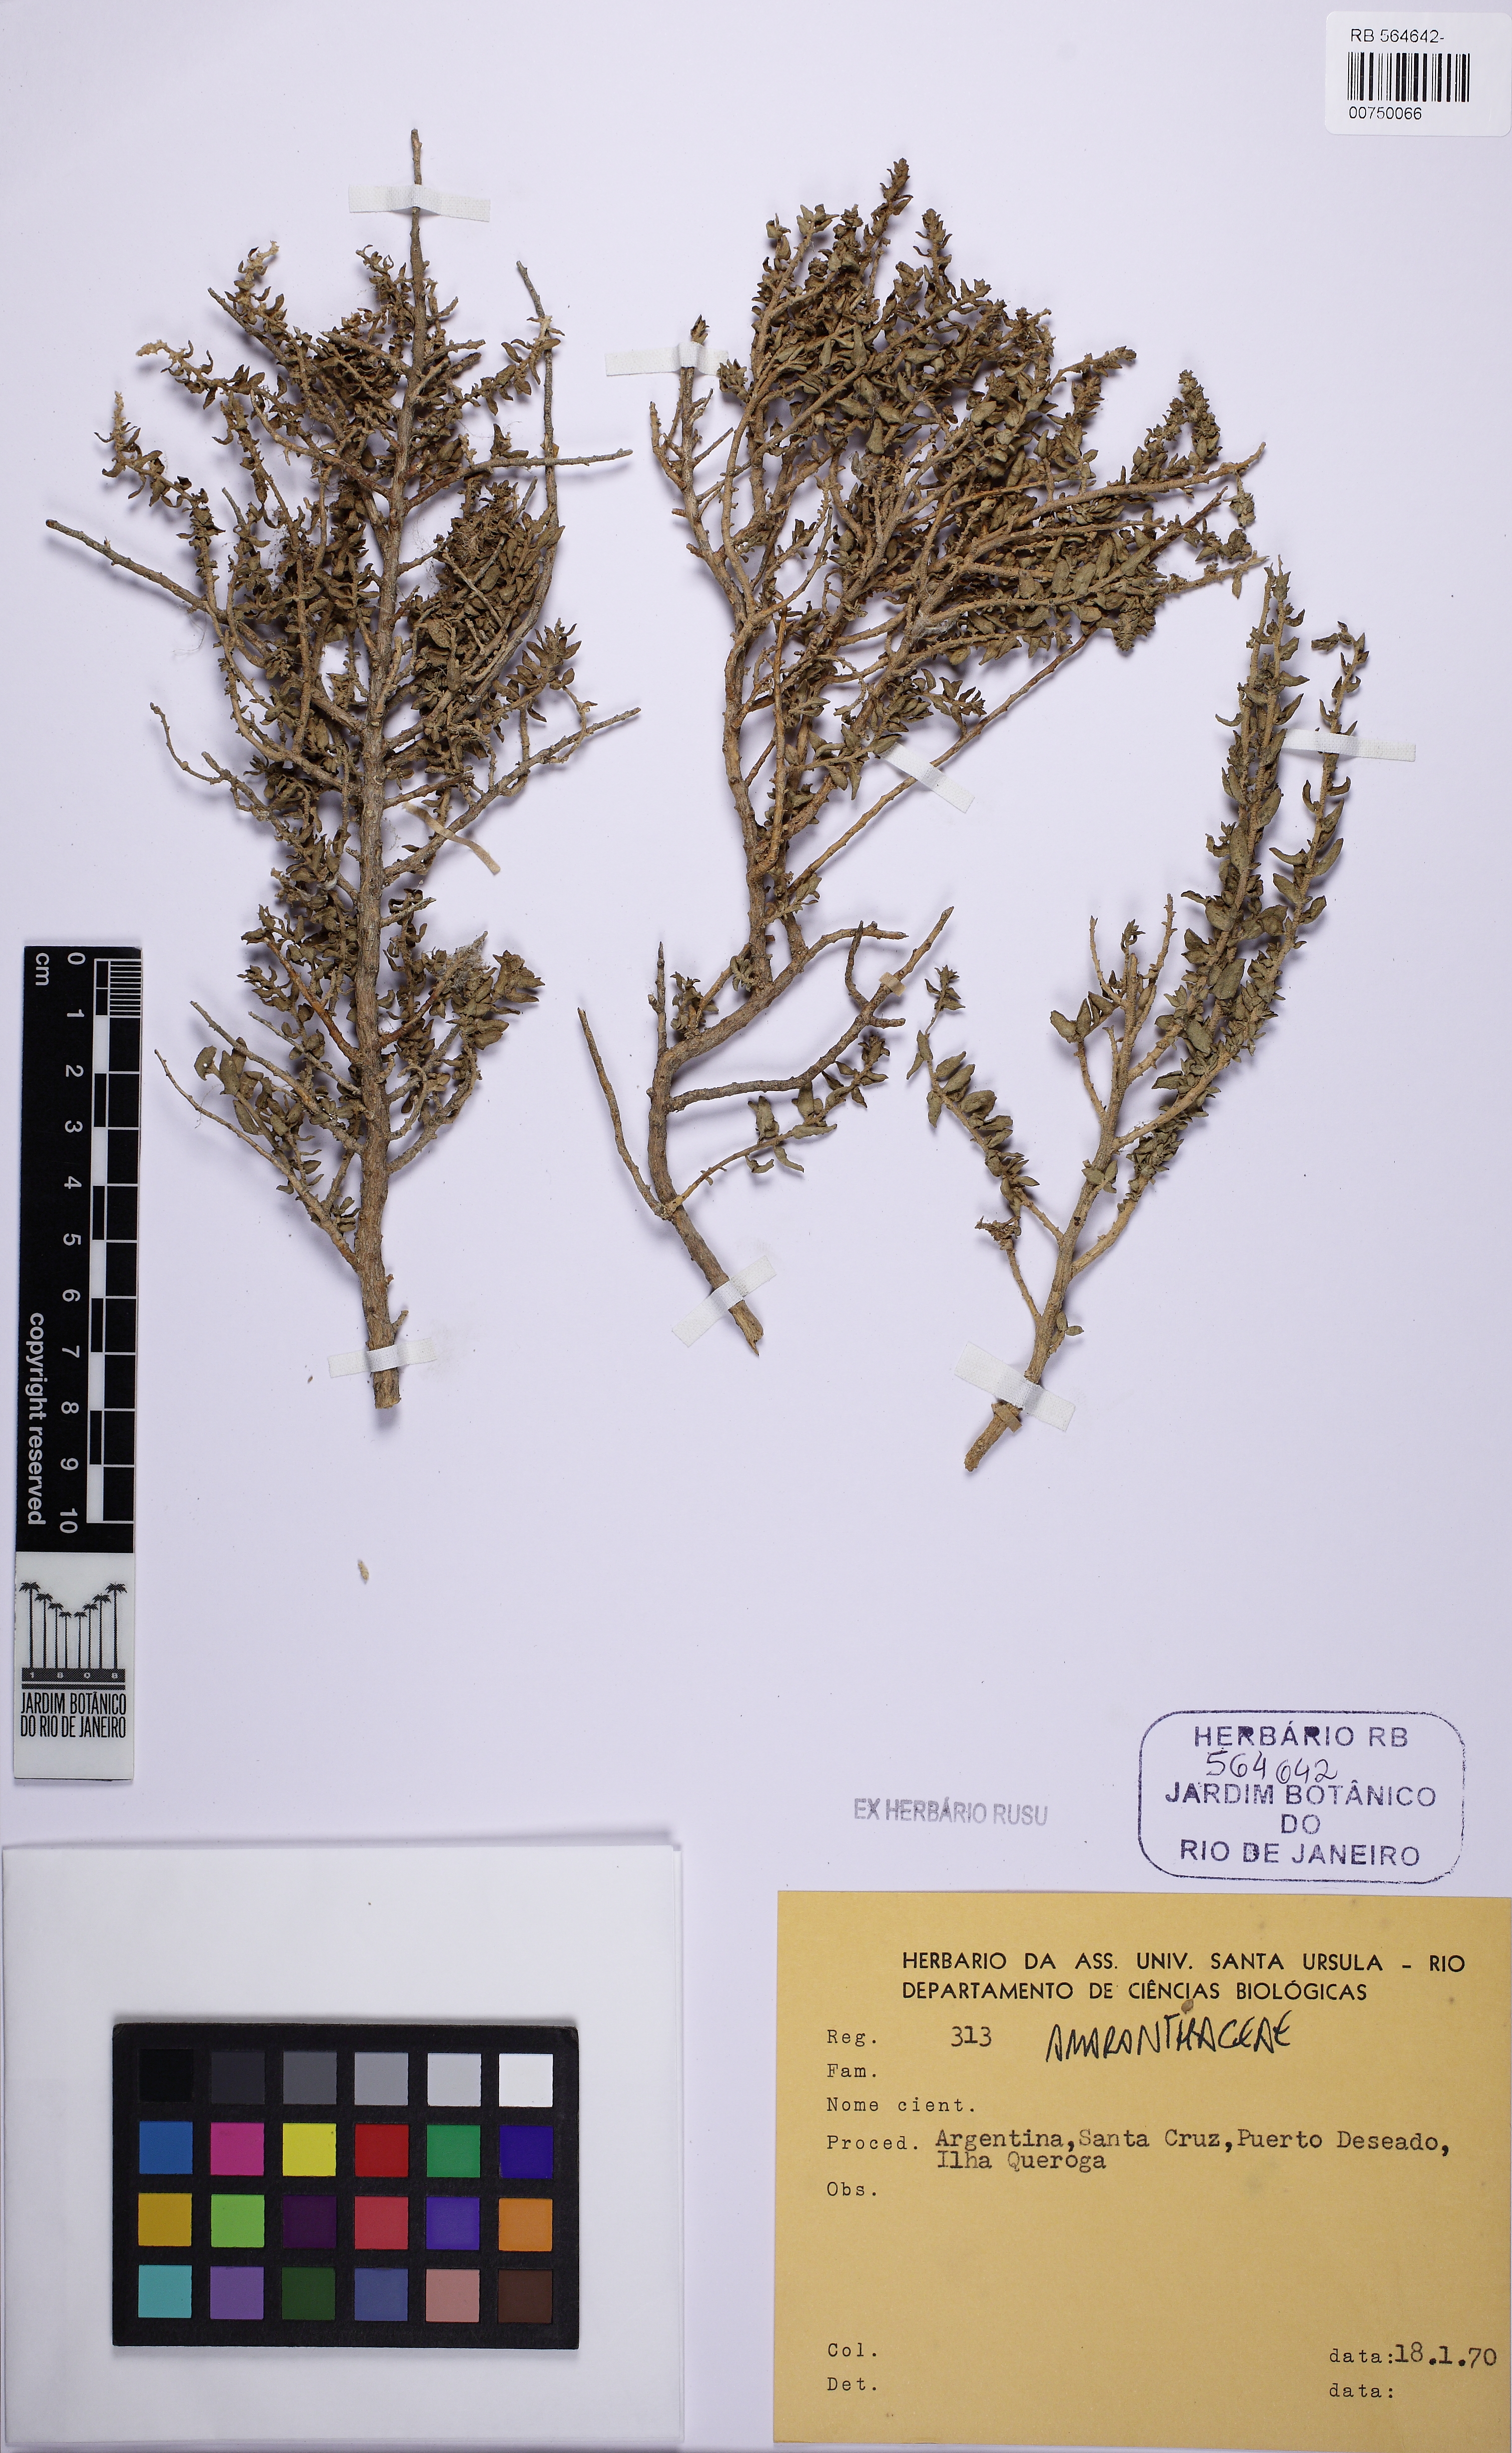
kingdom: Plantae
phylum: Tracheophyta
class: Magnoliopsida
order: Caryophyllales
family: Amaranthaceae
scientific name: Amaranthaceae
